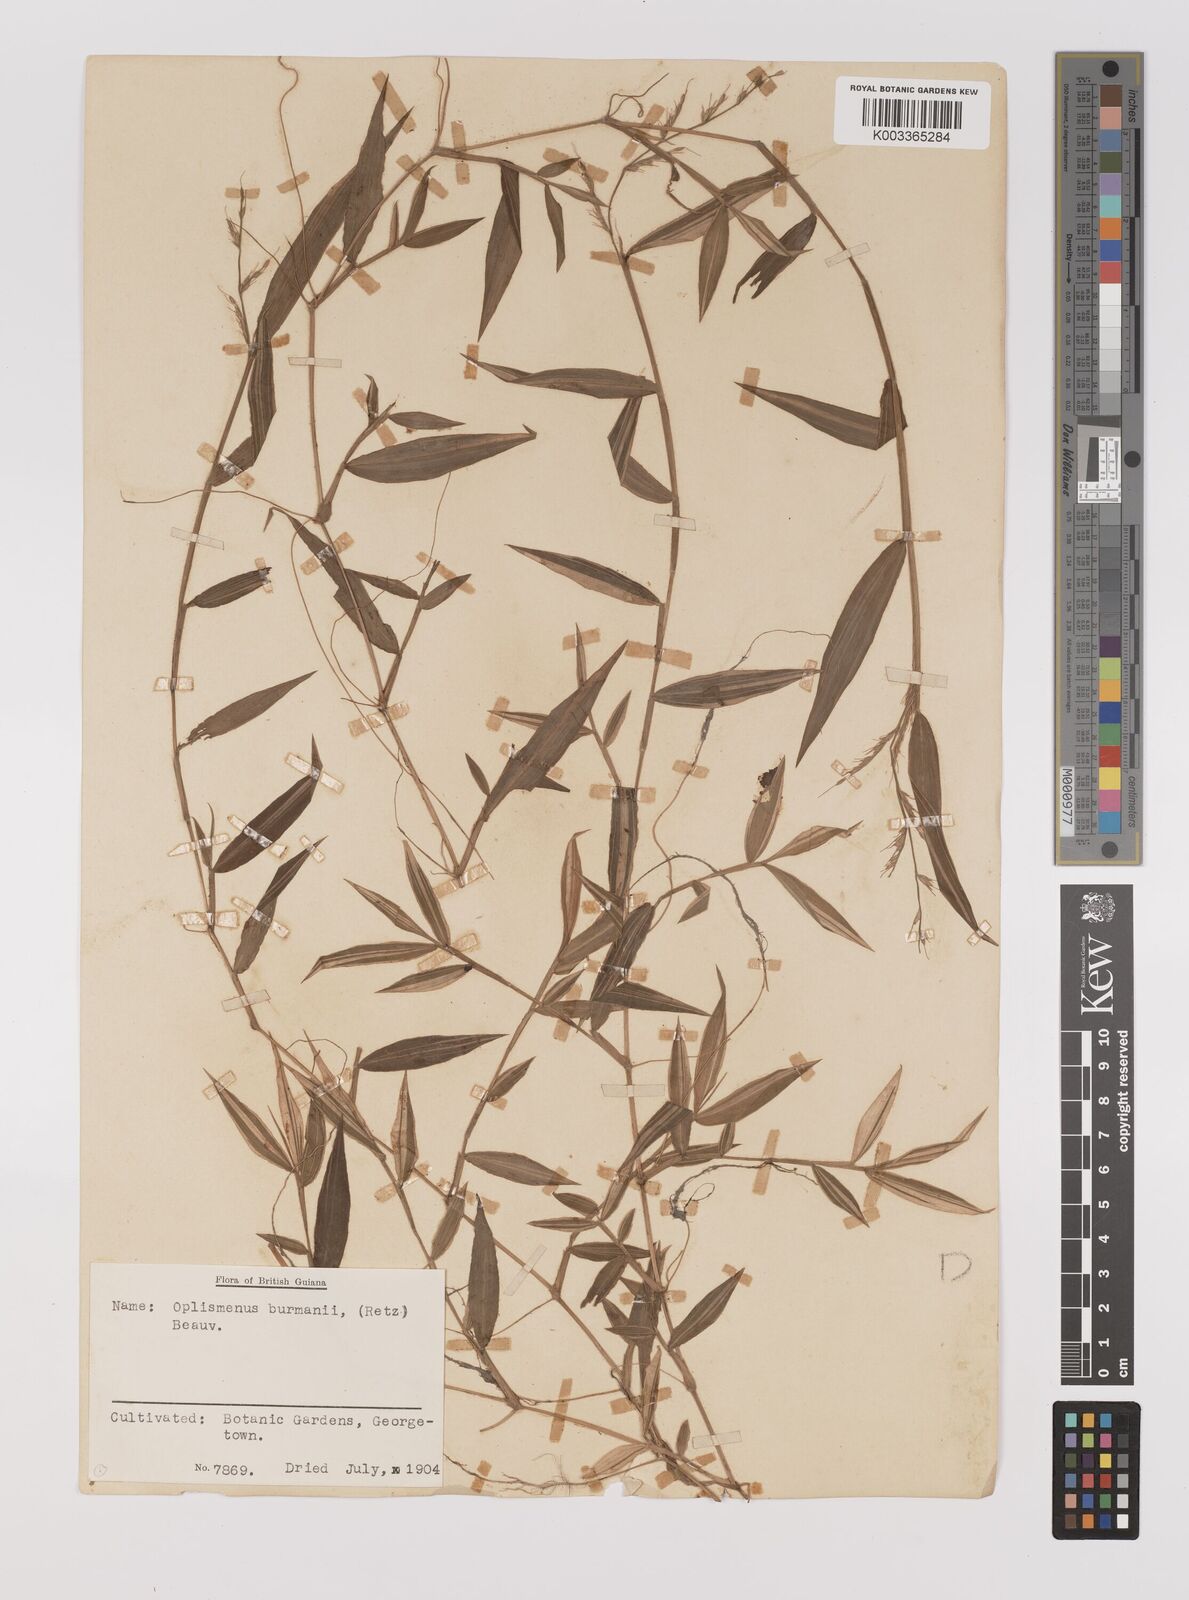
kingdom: Plantae
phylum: Tracheophyta
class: Liliopsida
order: Poales
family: Poaceae
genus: Oplismenus
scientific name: Oplismenus hirtellus
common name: Basketgrass
